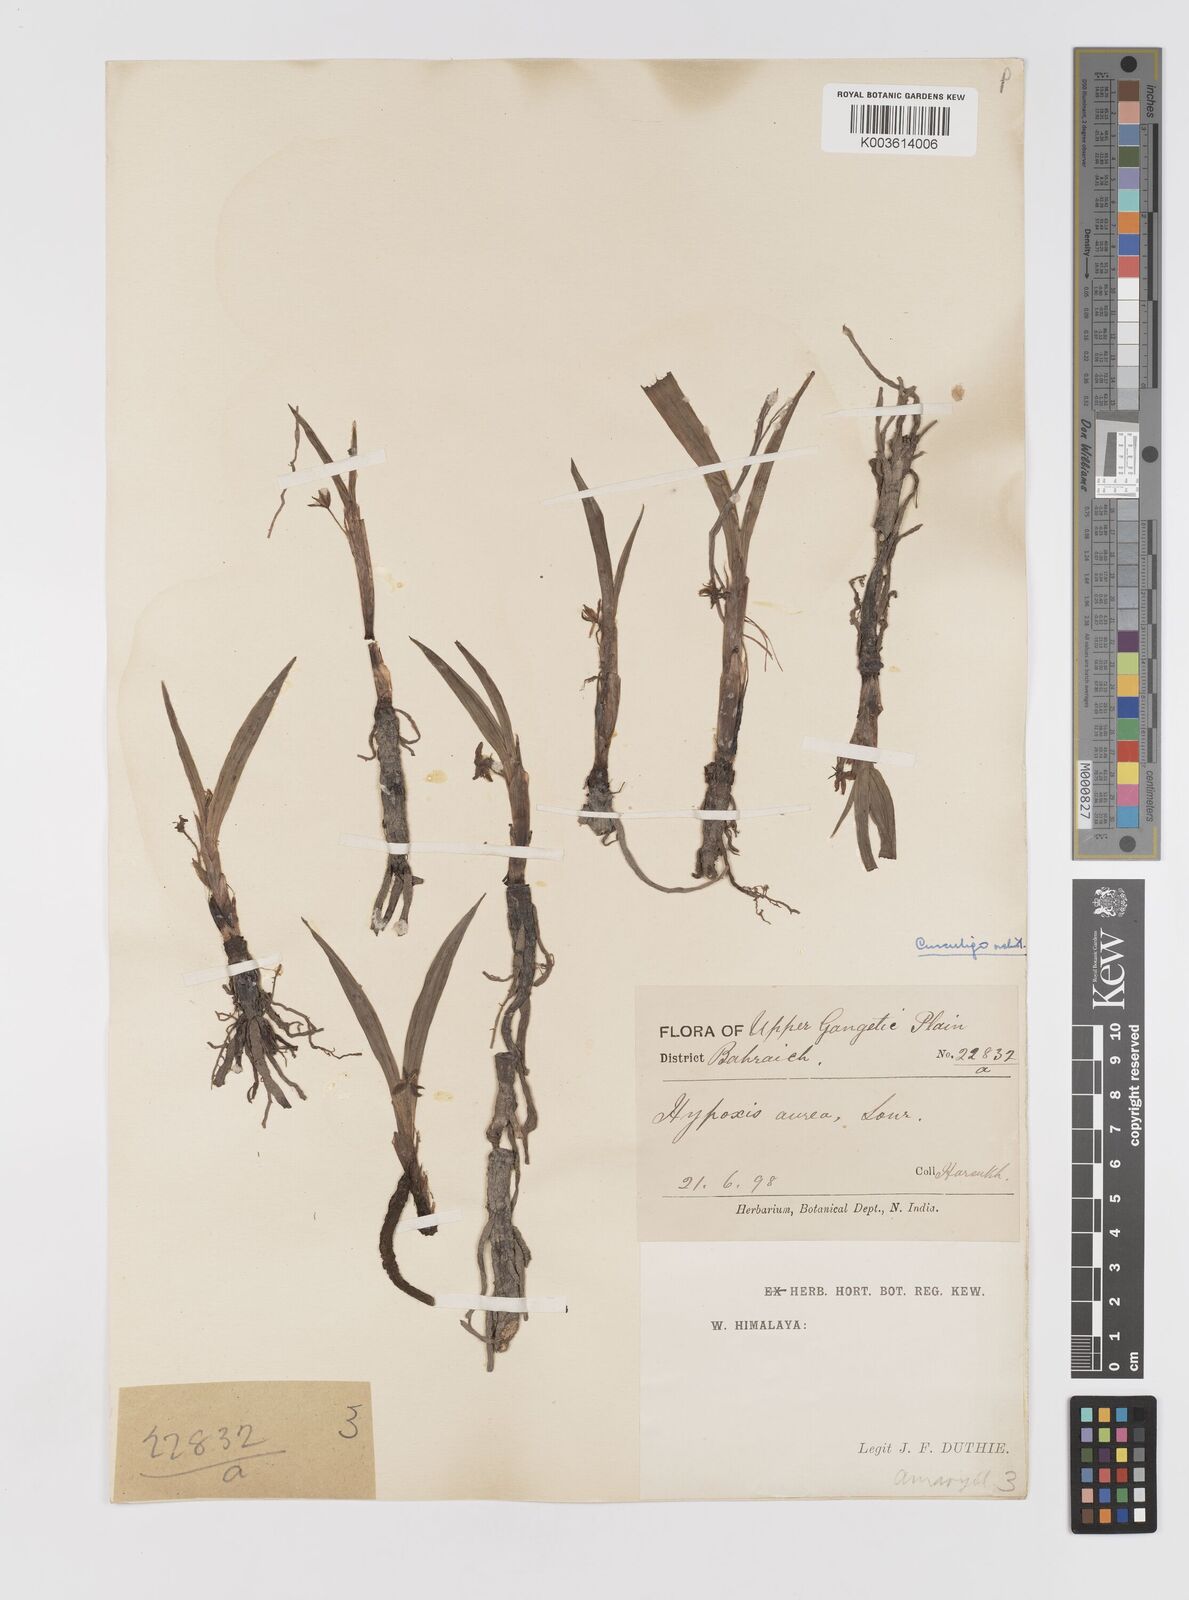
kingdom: Plantae
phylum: Tracheophyta
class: Liliopsida
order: Asparagales
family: Hypoxidaceae
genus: Curculigo
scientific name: Curculigo orchioides
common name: Golden eye-grass
